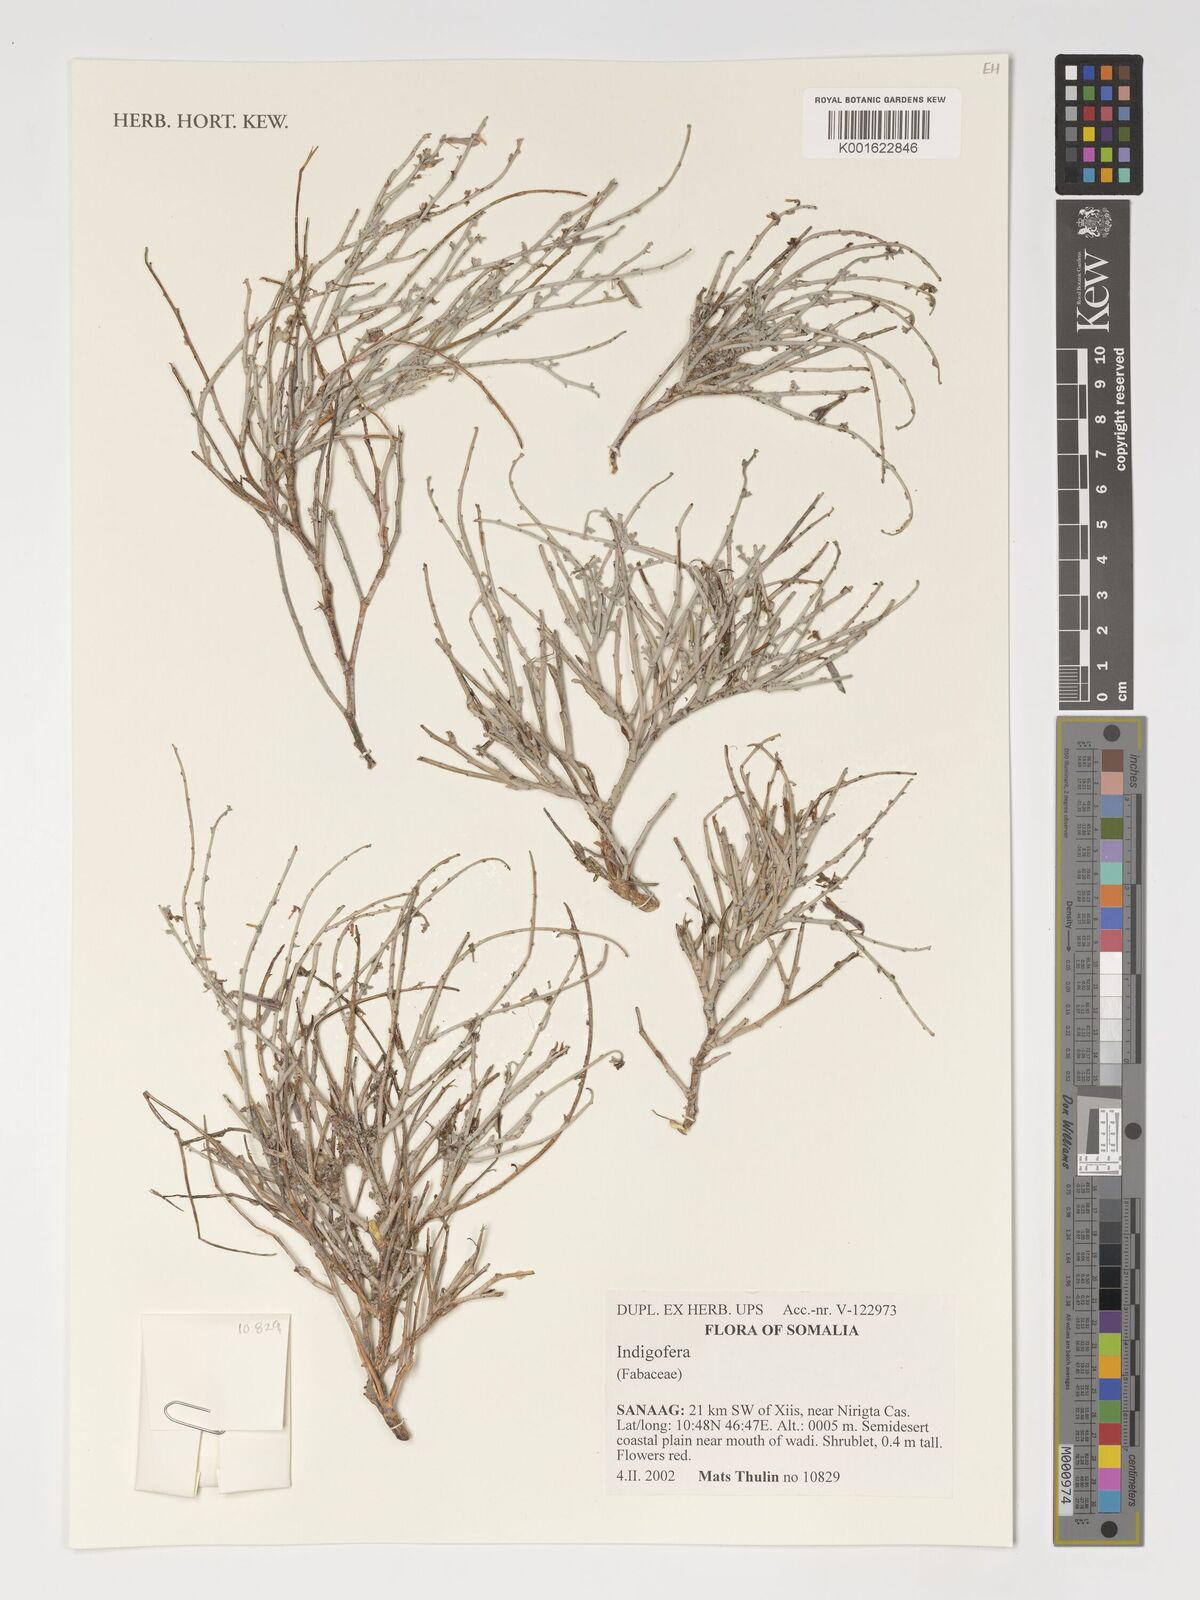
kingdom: Plantae
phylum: Tracheophyta
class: Magnoliopsida
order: Fabales
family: Fabaceae
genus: Indigofera
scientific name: Indigofera
